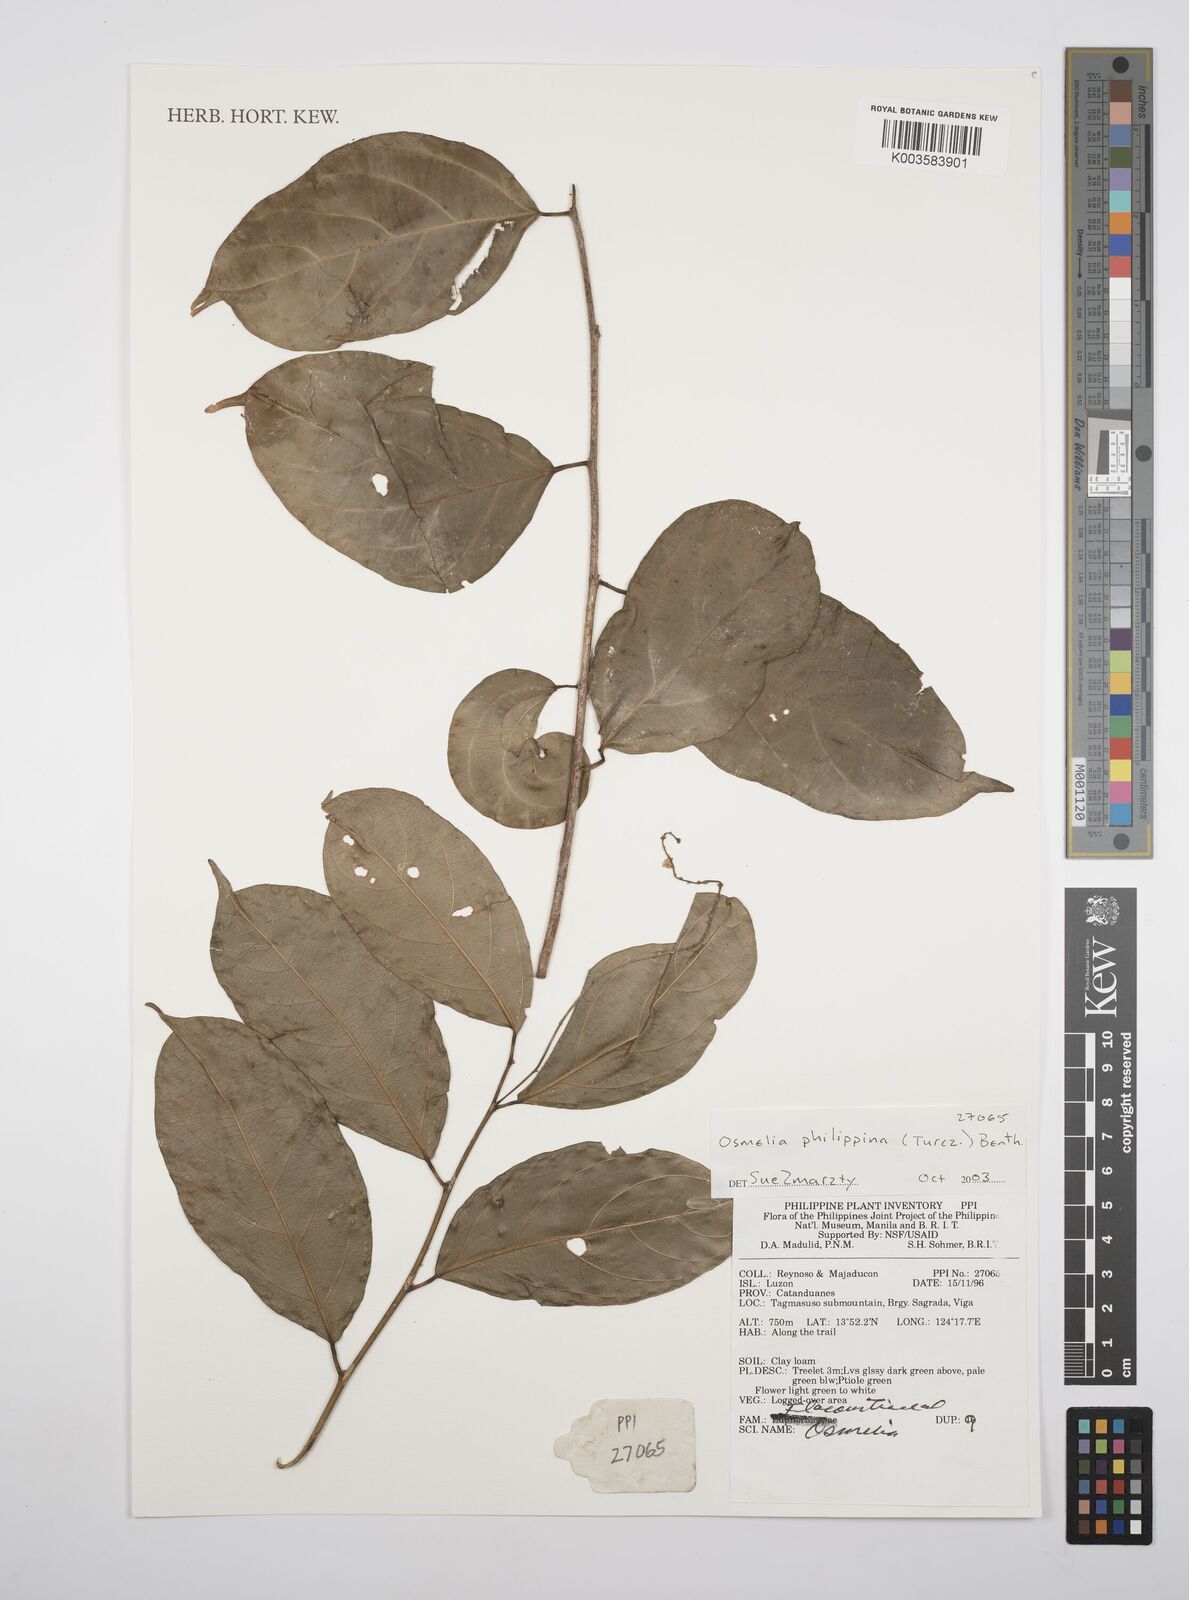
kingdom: Plantae
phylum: Tracheophyta
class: Magnoliopsida
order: Malpighiales
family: Salicaceae
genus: Osmelia
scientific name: Osmelia philippina
